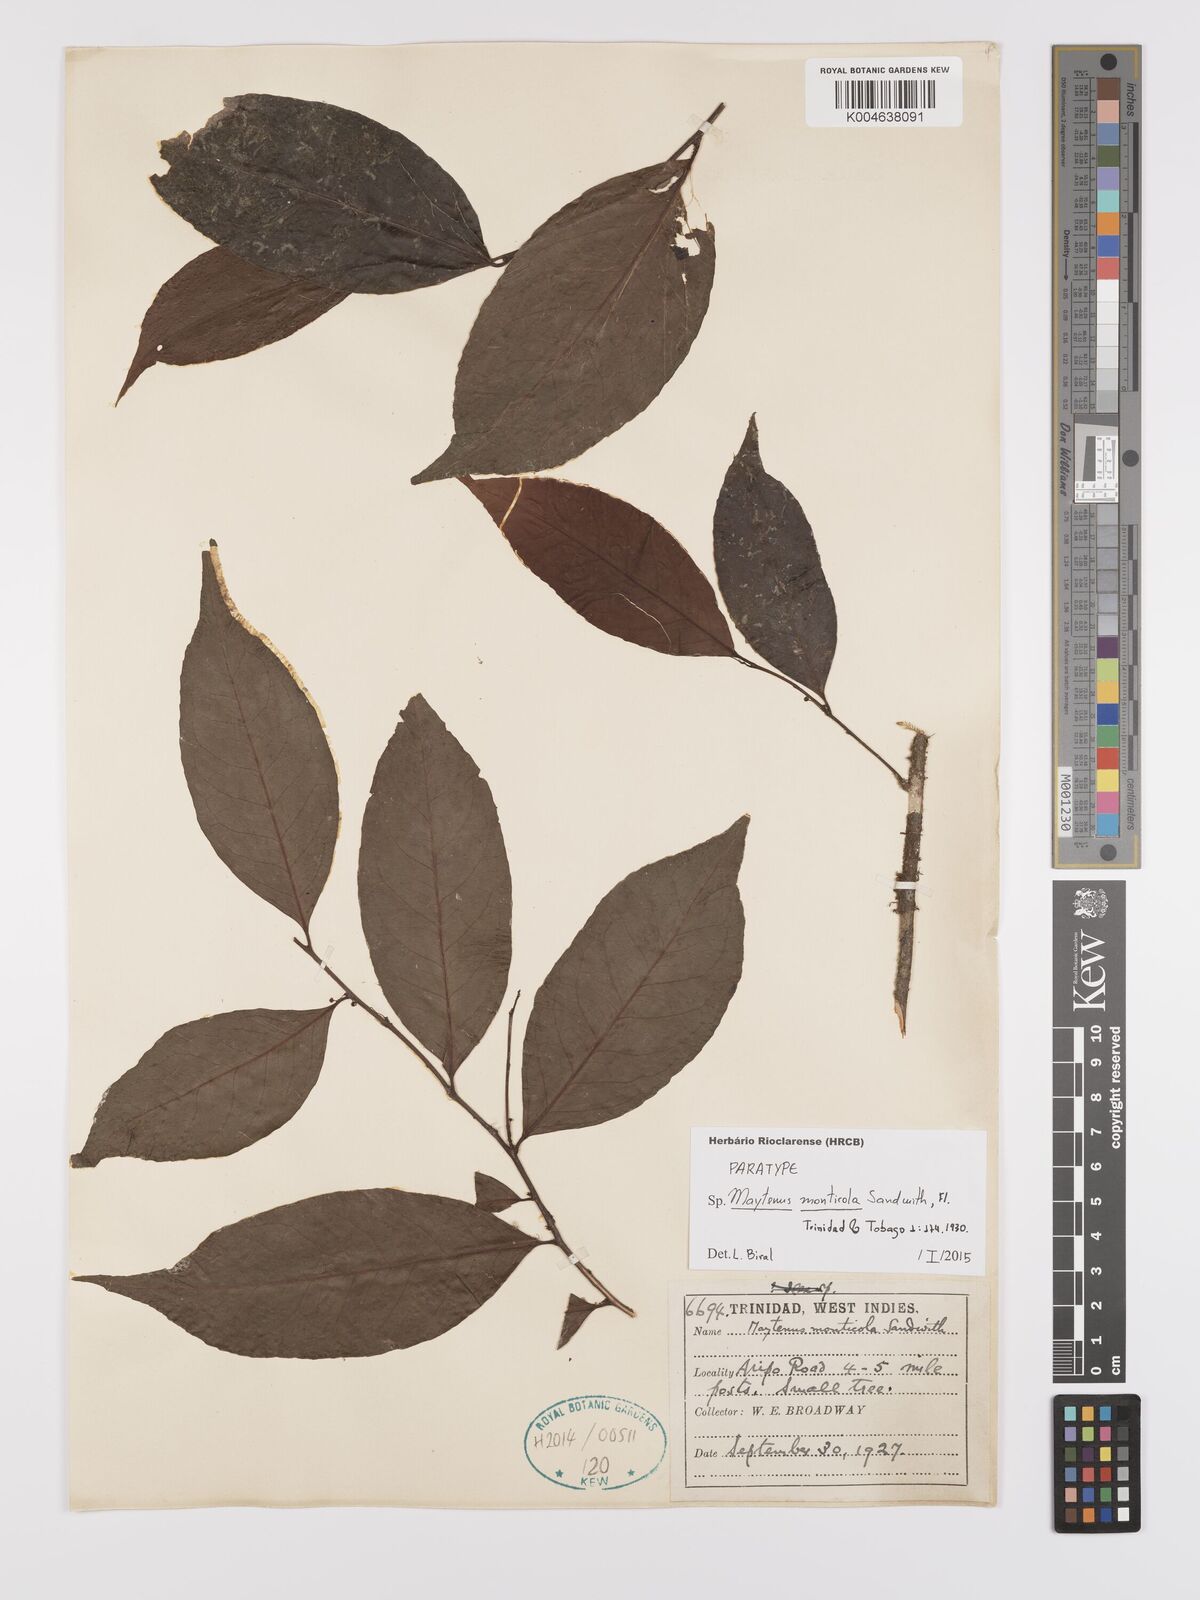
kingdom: Plantae
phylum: Tracheophyta
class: Magnoliopsida
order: Celastrales
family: Celastraceae
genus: Monteverdia
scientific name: Monteverdia monticola
